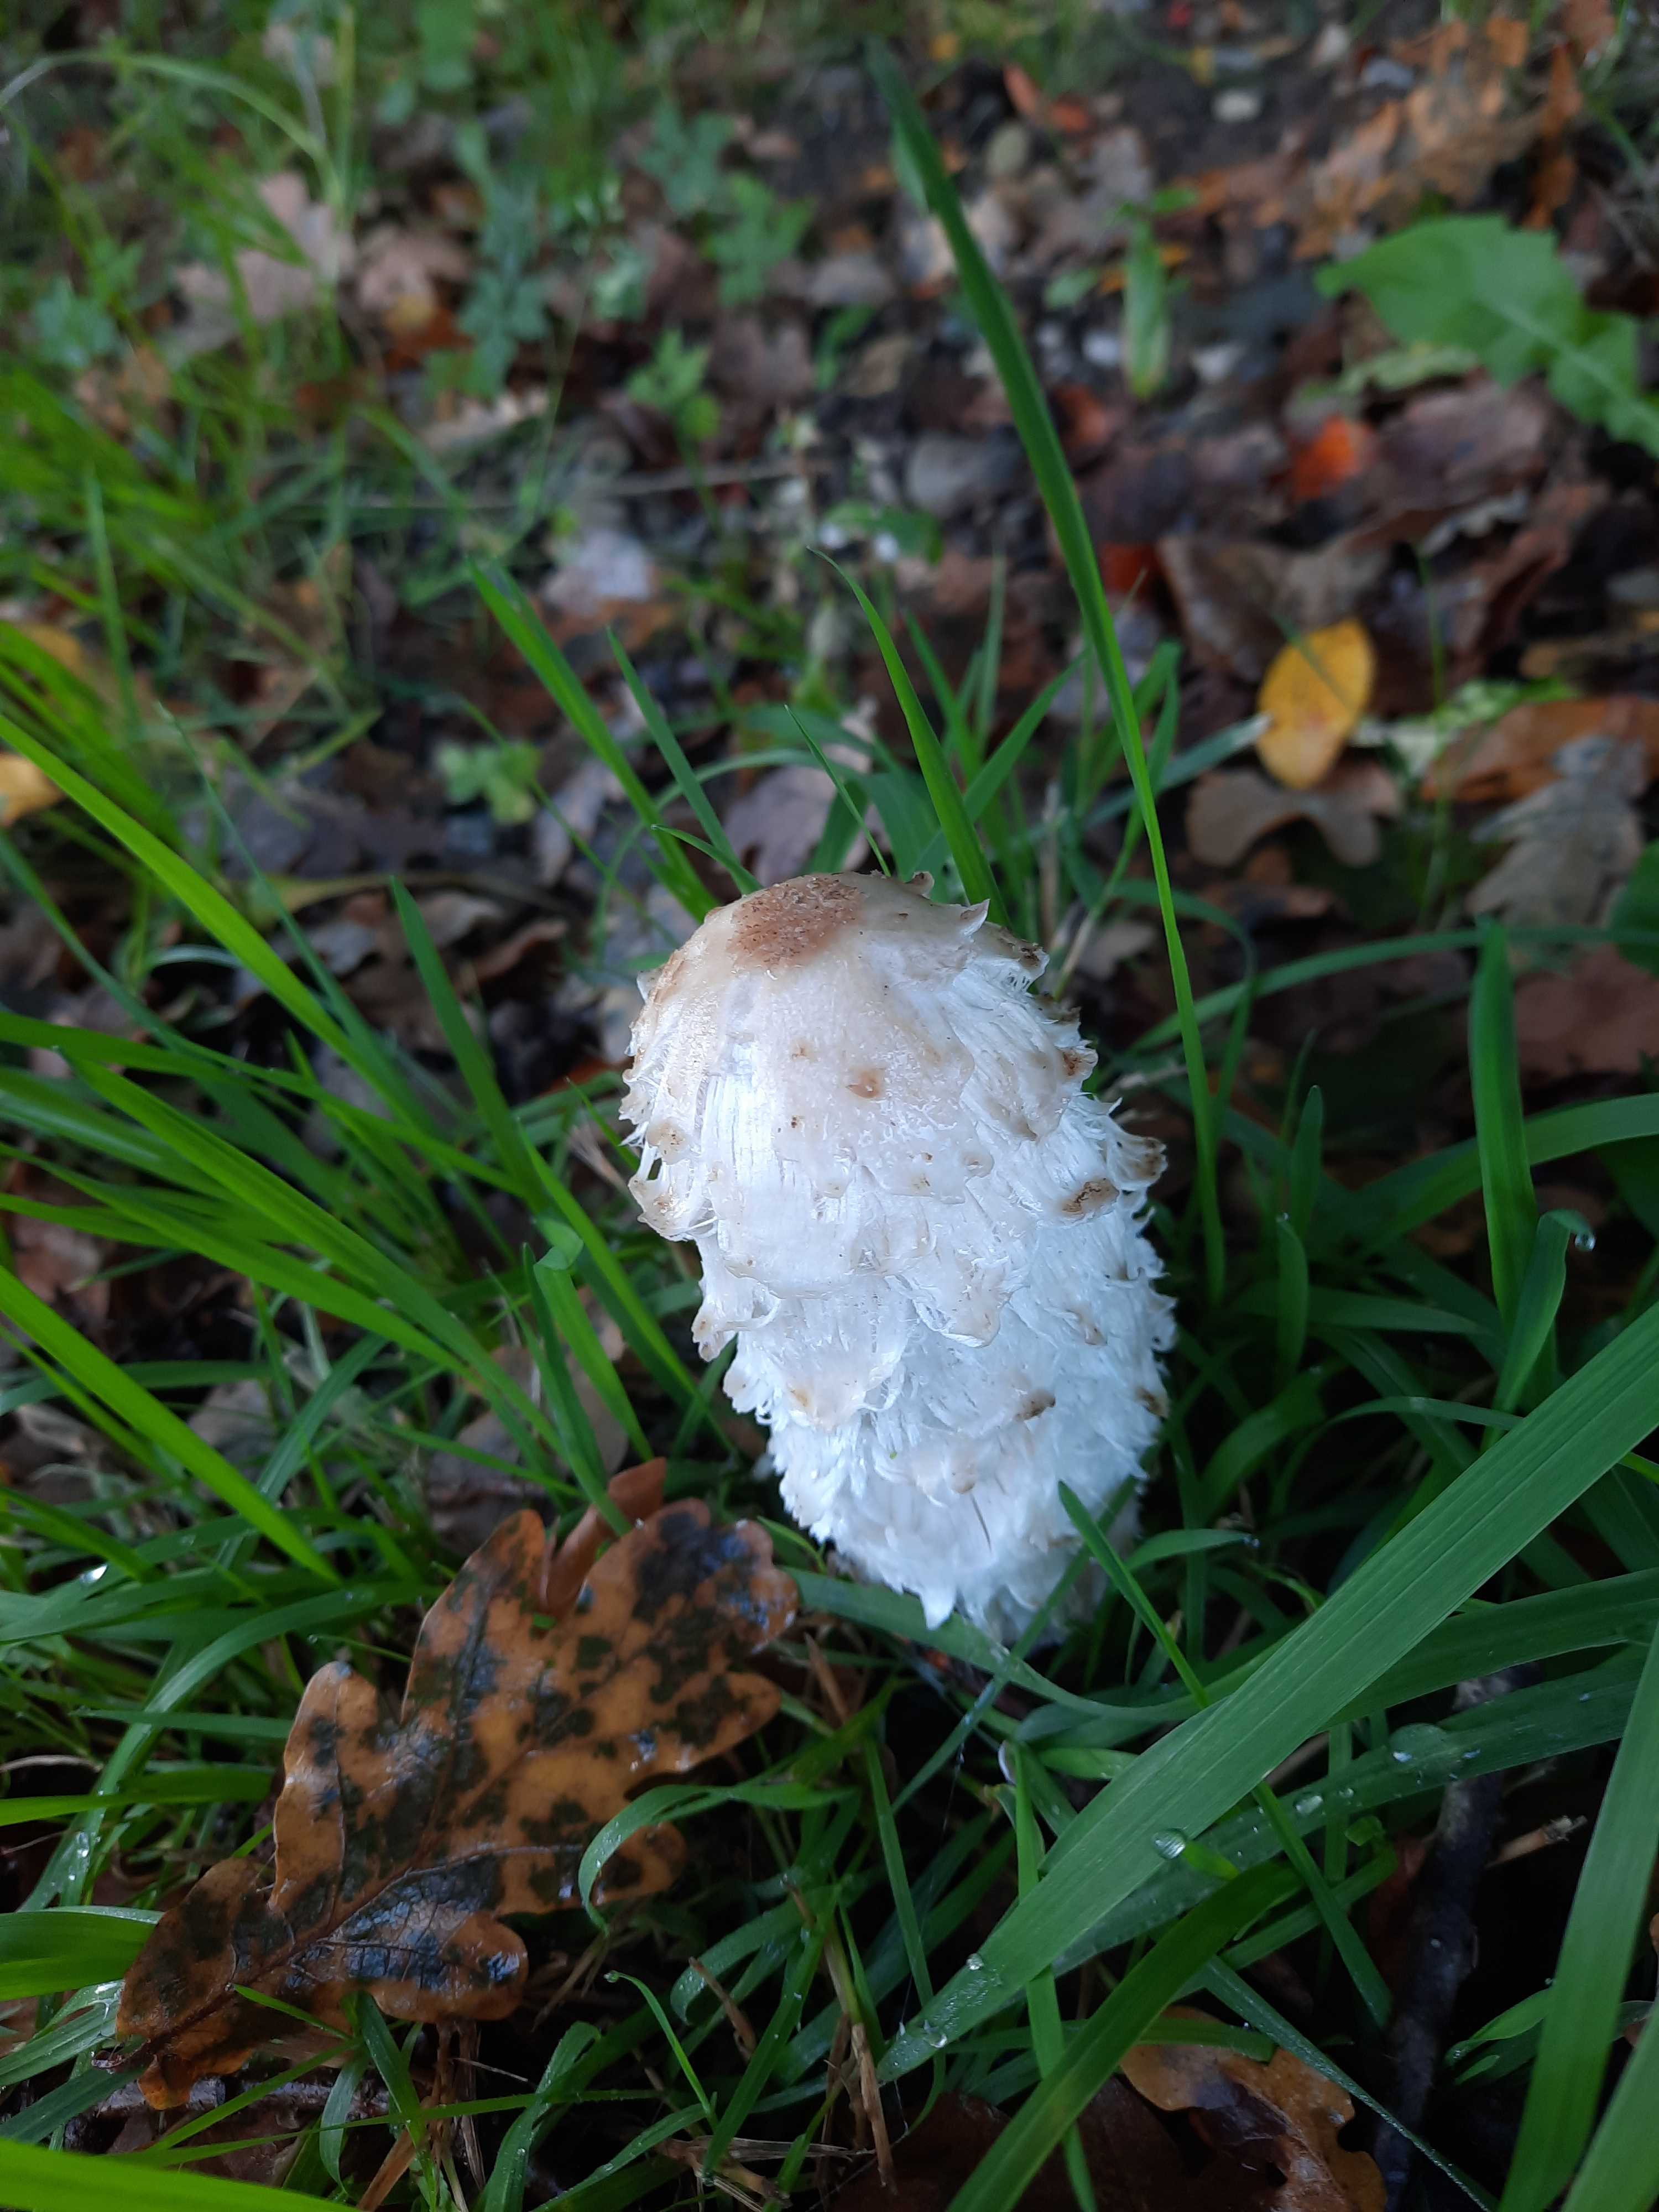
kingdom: Fungi
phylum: Basidiomycota
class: Agaricomycetes
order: Agaricales
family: Agaricaceae
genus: Coprinus
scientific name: Coprinus comatus
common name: stor parykhat
